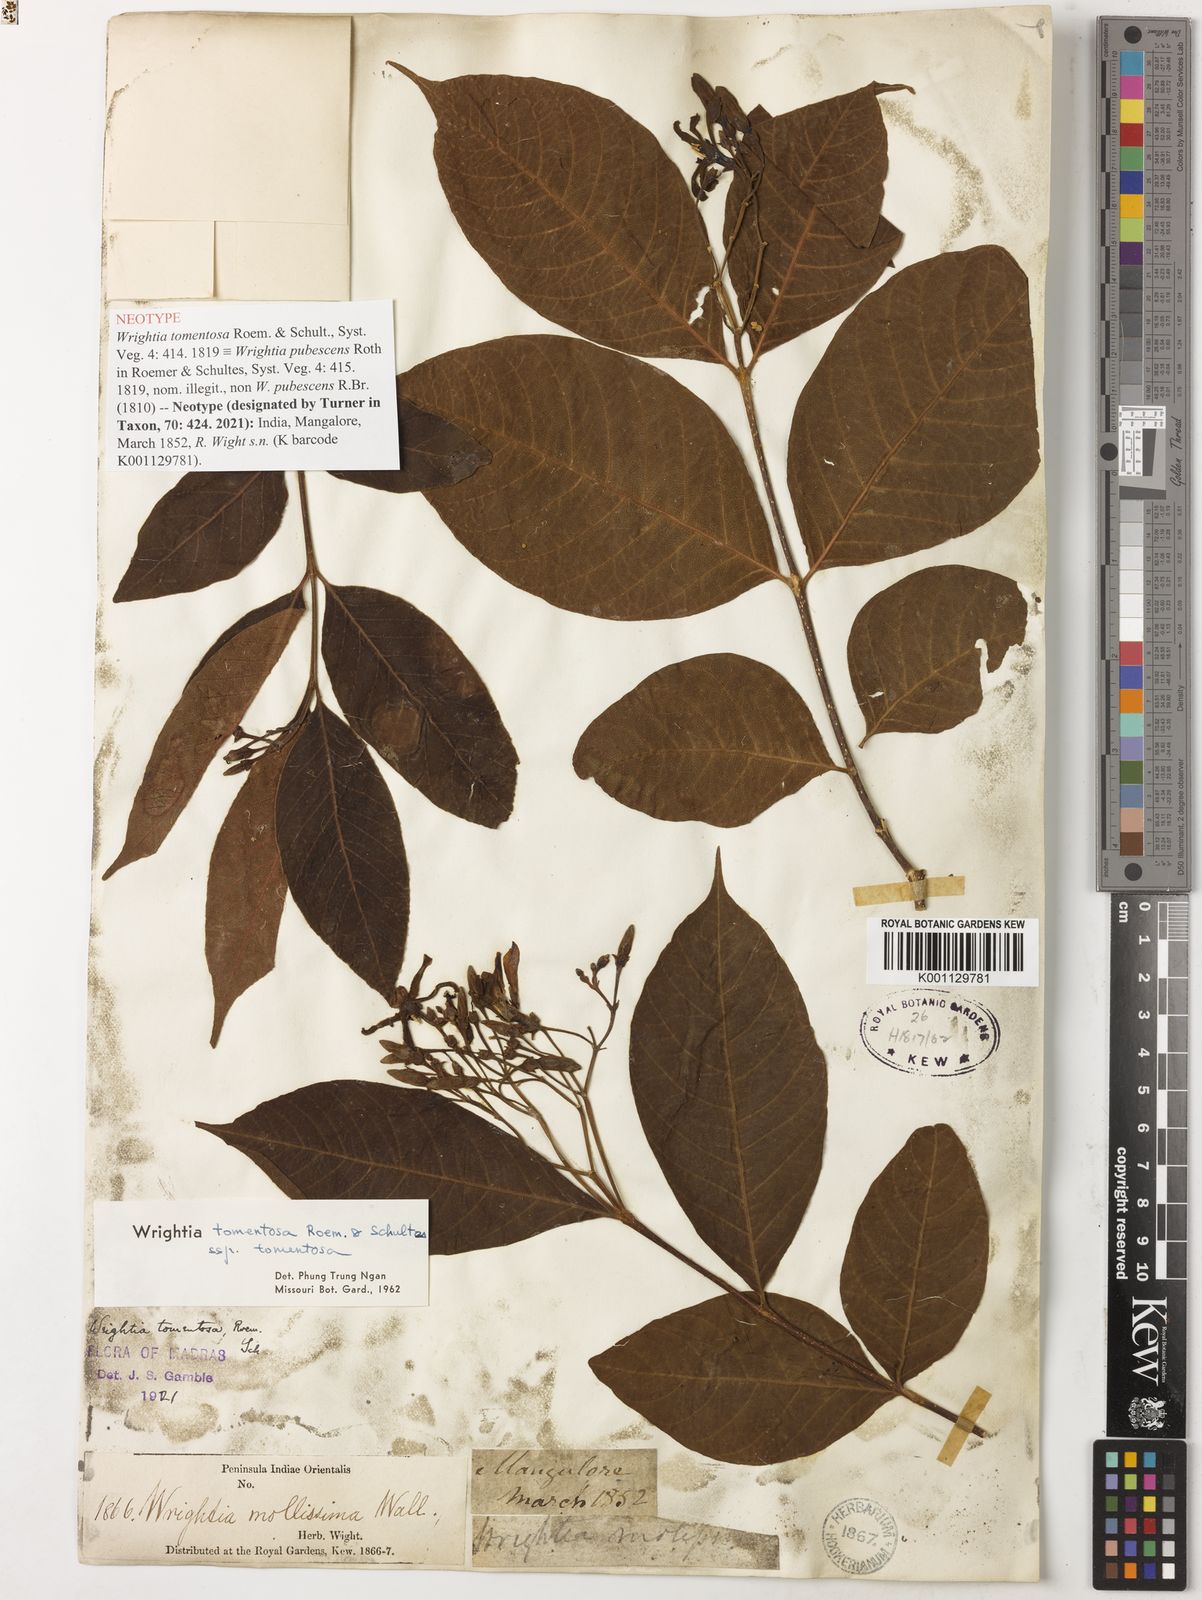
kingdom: Plantae
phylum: Tracheophyta
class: Magnoliopsida
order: Gentianales
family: Apocynaceae
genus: Wrightia
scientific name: Wrightia arborea
